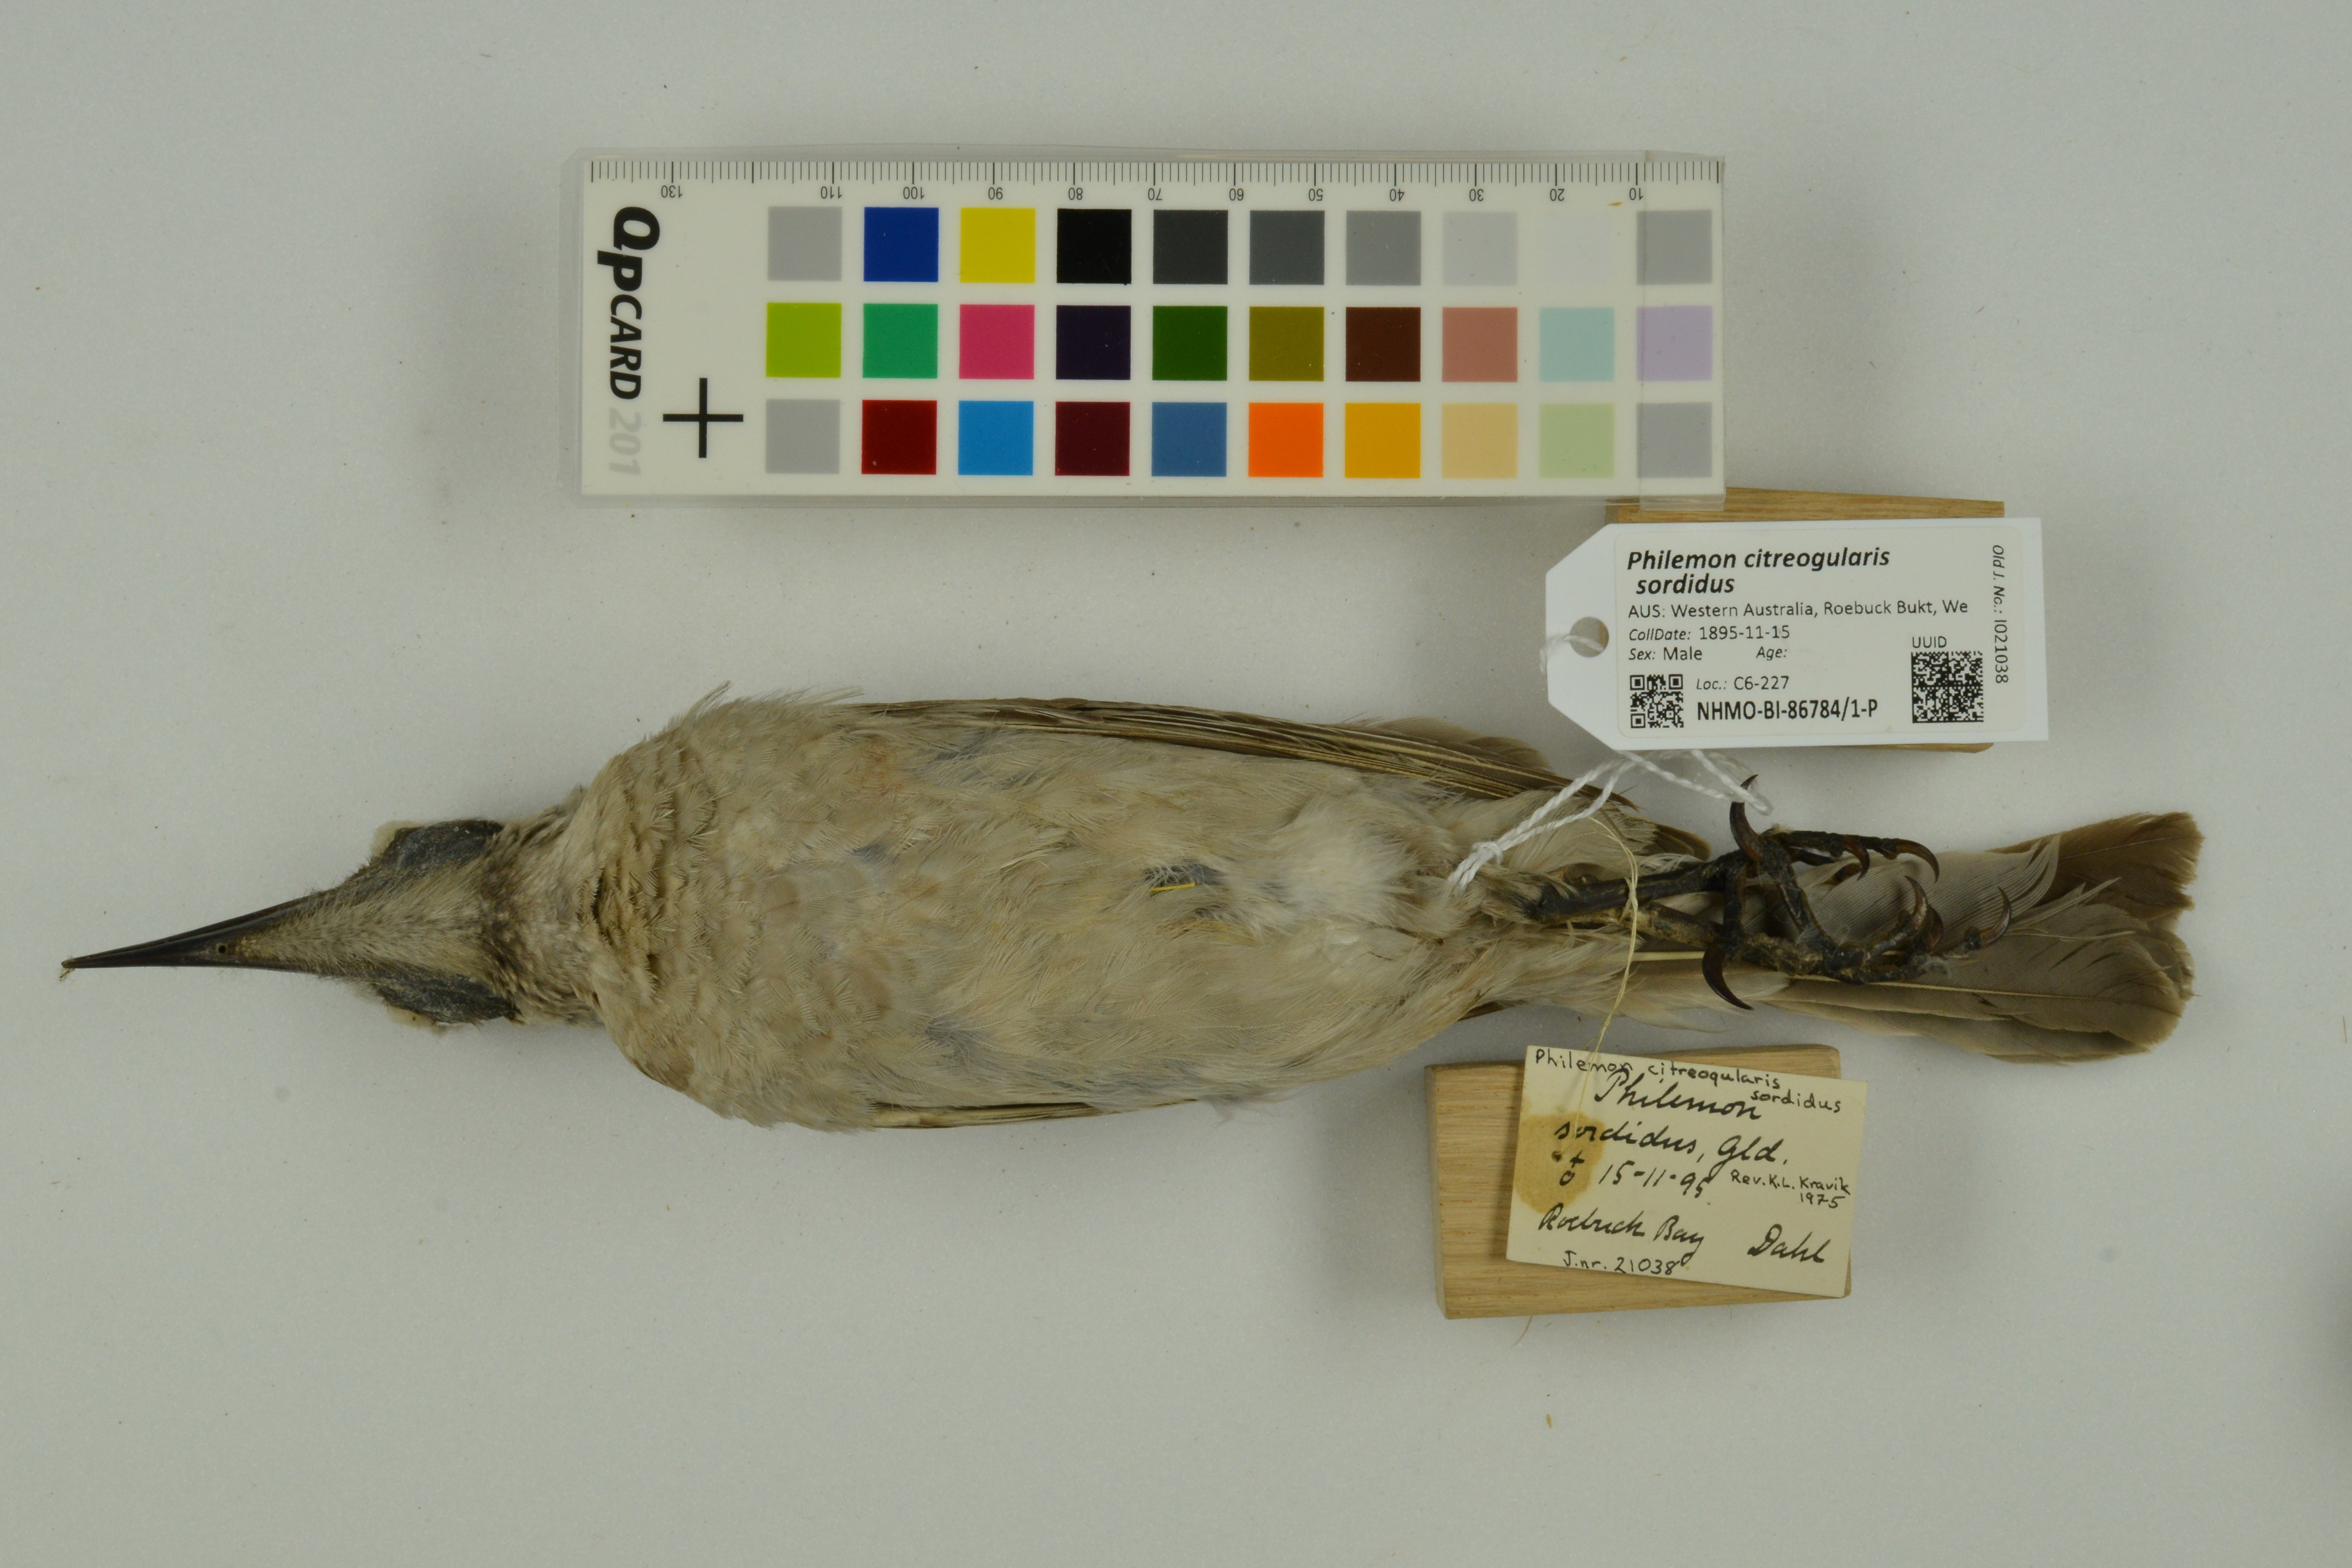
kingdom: Animalia
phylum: Chordata
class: Aves
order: Passeriformes
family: Meliphagidae
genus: Philemon
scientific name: Philemon citreogularis
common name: Little friarbird
